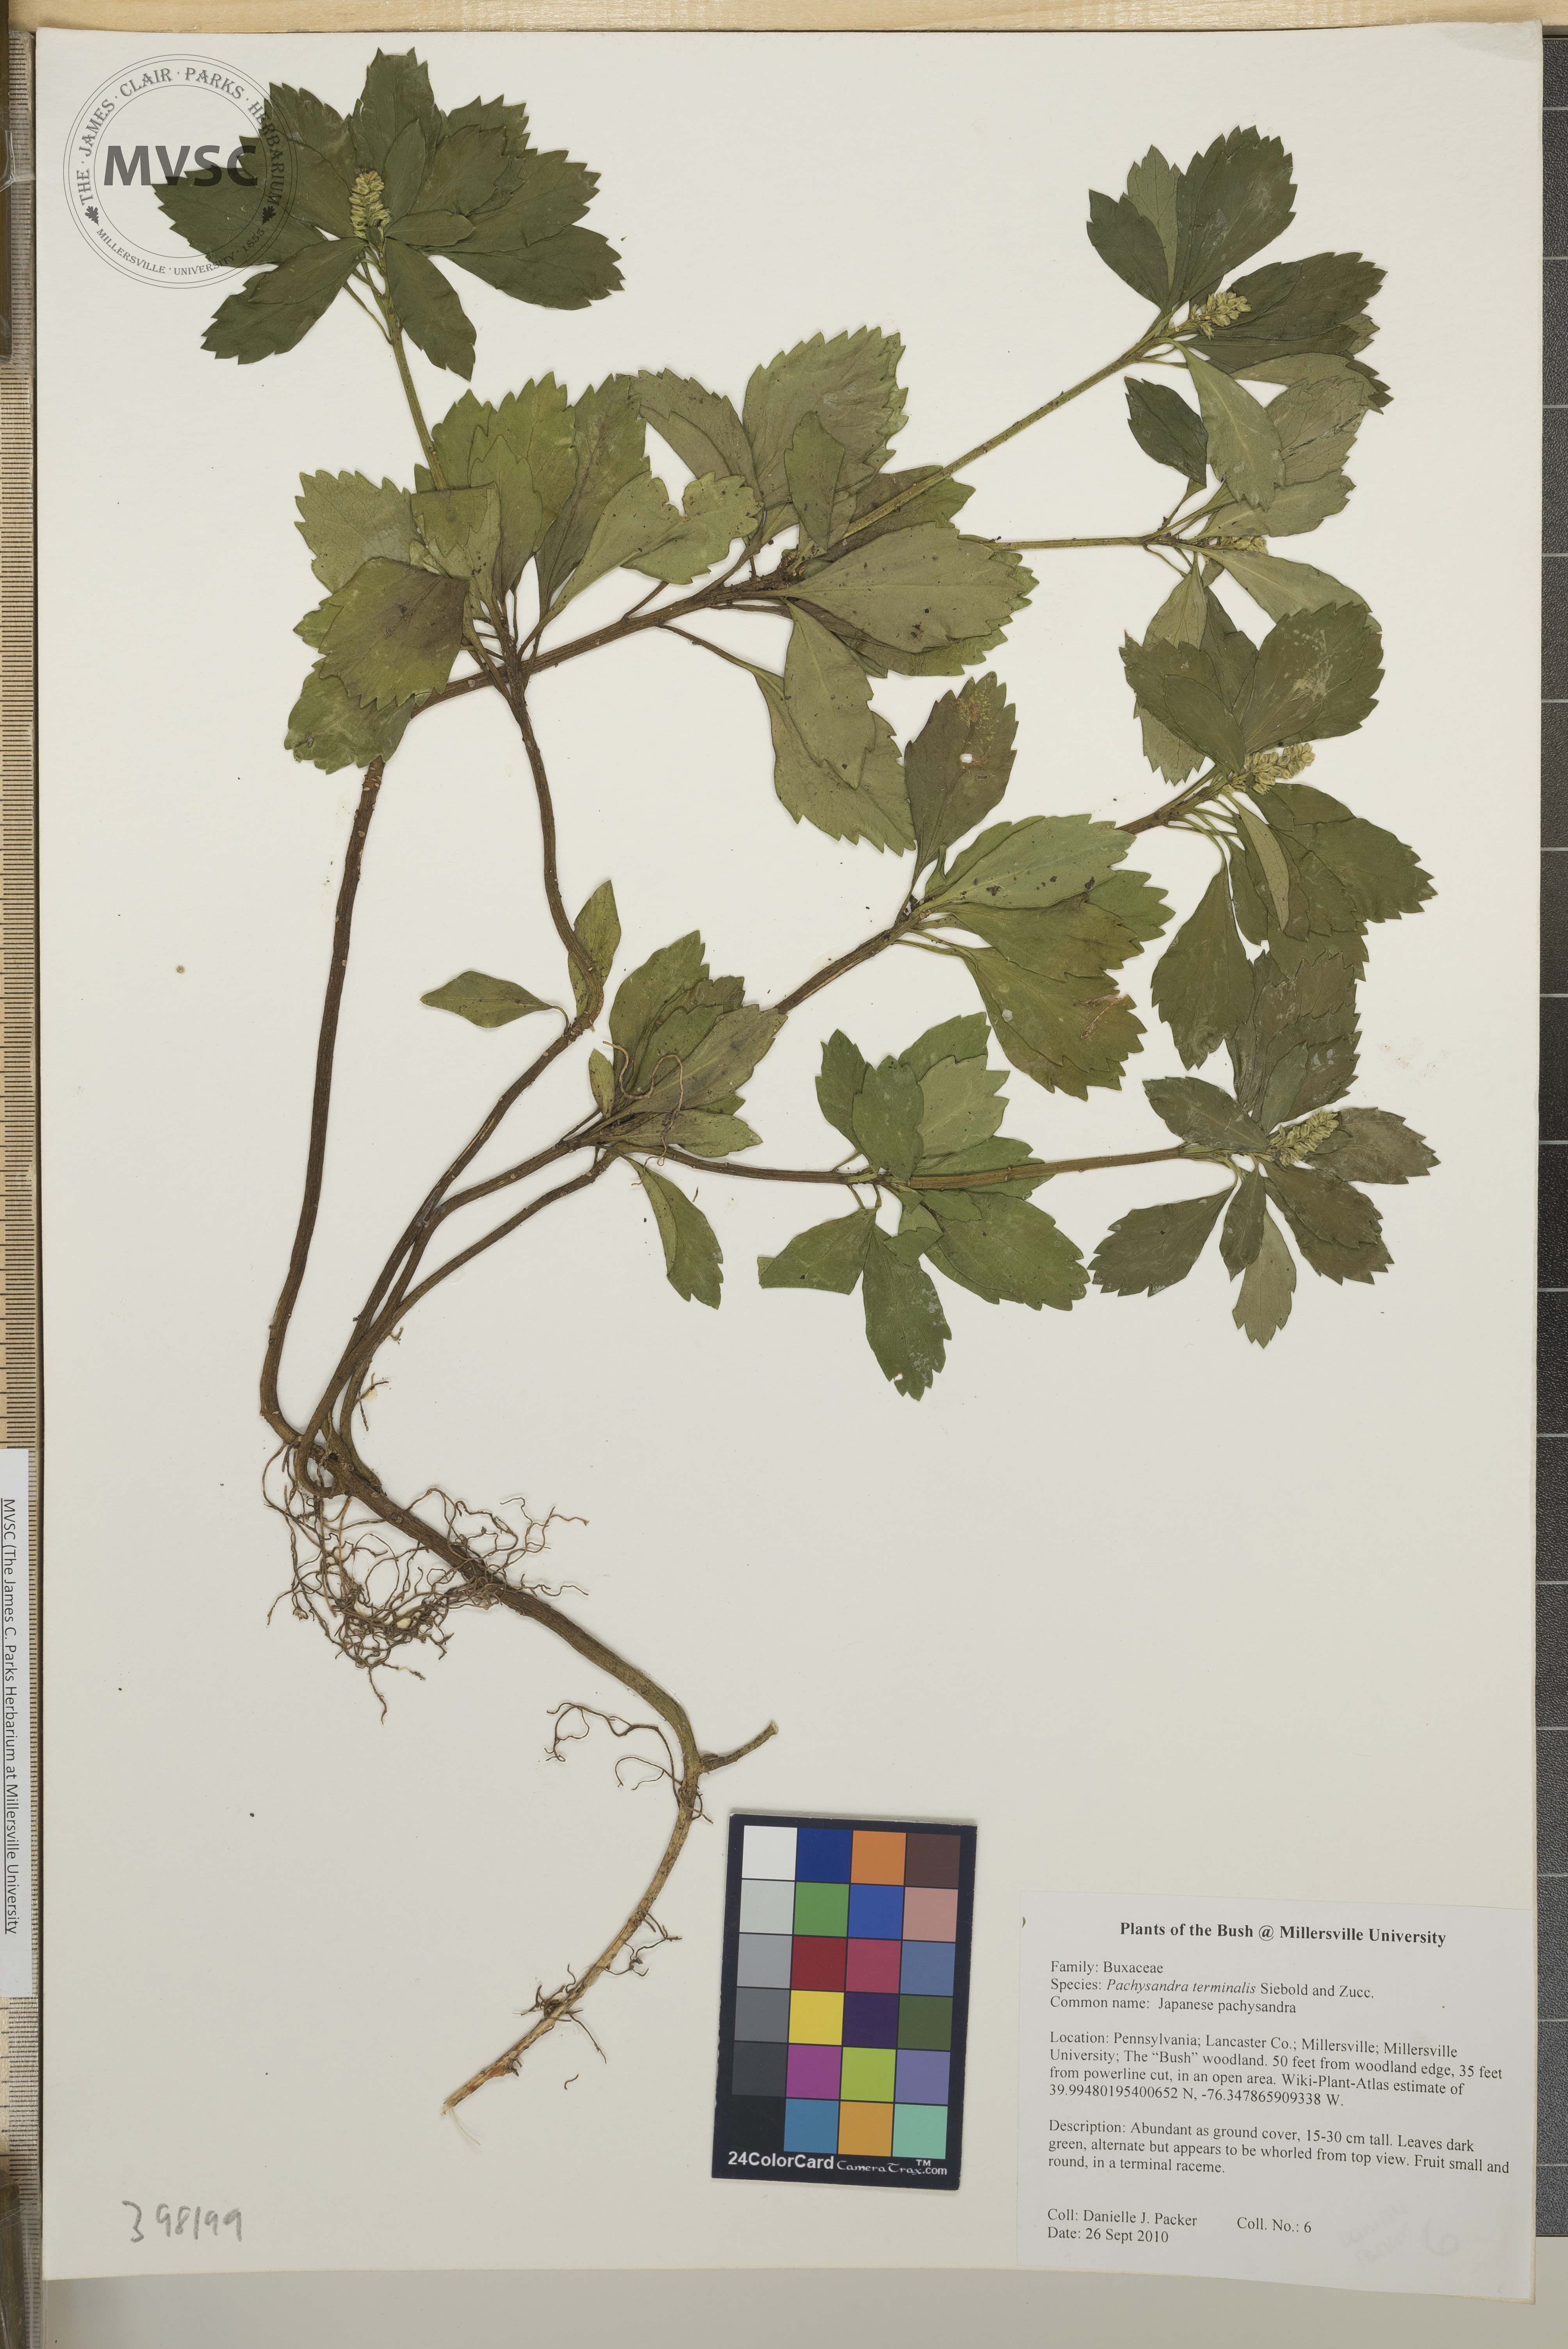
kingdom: Plantae
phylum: Tracheophyta
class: Magnoliopsida
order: Buxales
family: Buxaceae
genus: Pachysandra
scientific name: Pachysandra terminalis
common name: Japanese pachysandra
